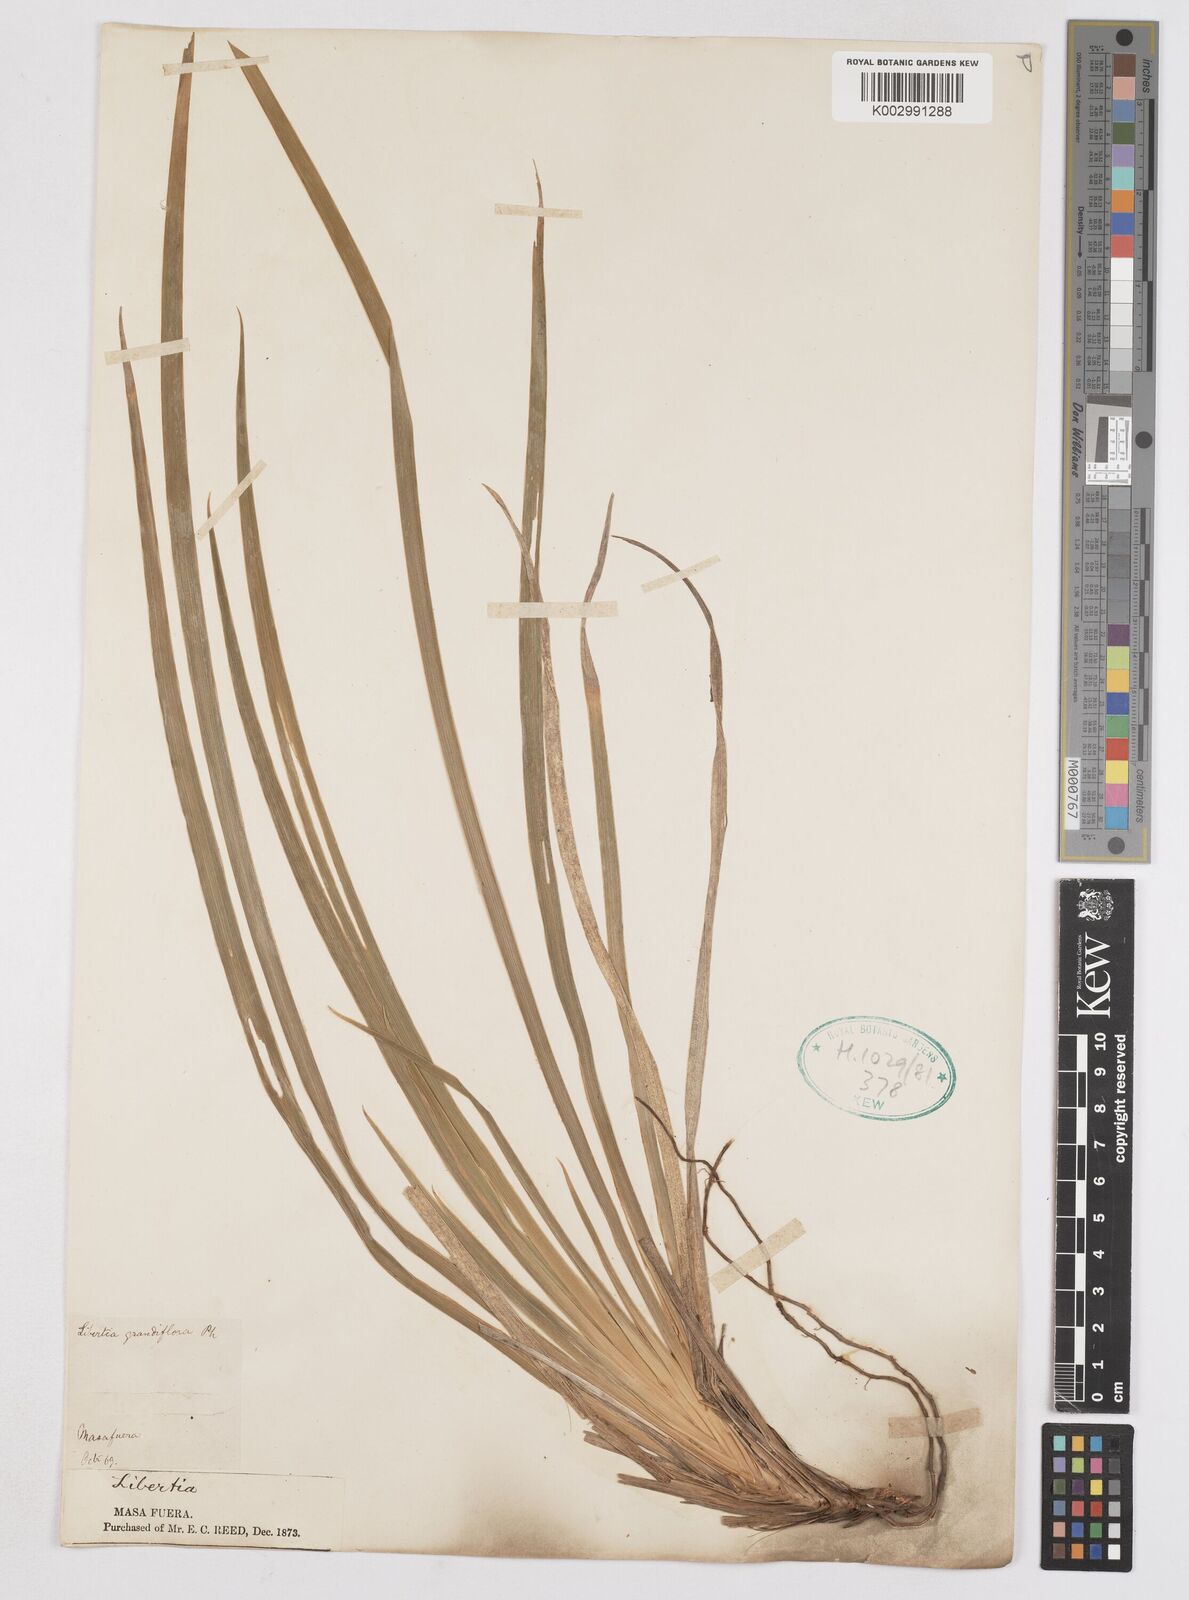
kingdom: Plantae
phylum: Tracheophyta
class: Liliopsida
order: Asparagales
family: Iridaceae
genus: Libertia
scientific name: Libertia
